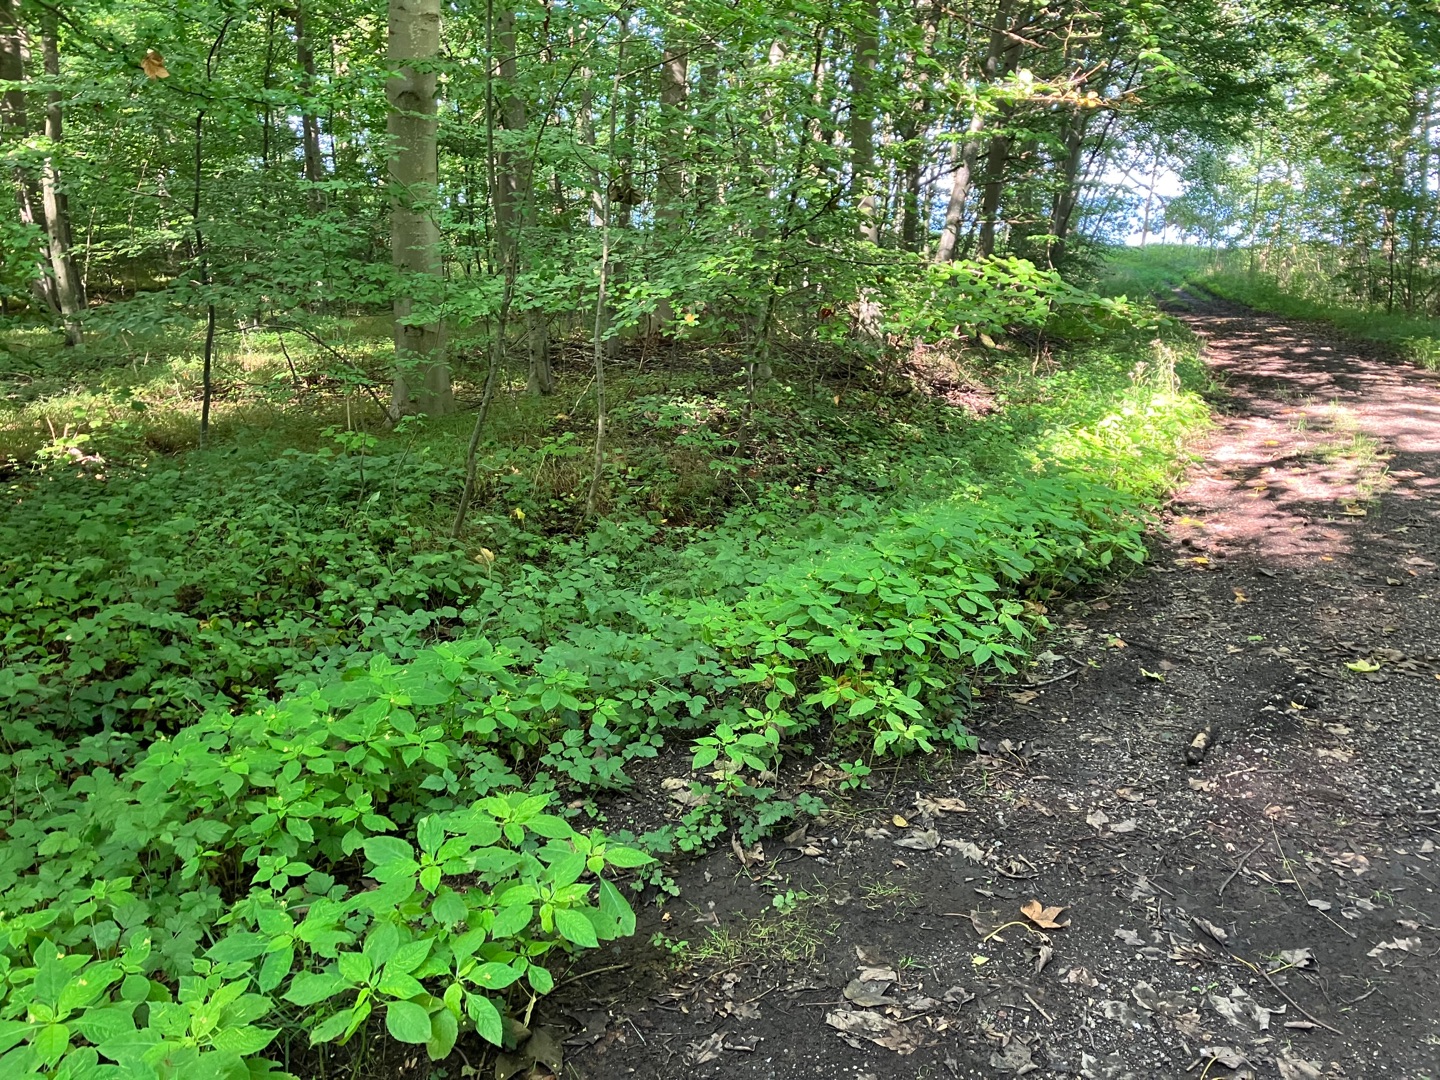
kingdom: Plantae
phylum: Tracheophyta
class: Magnoliopsida
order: Ericales
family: Balsaminaceae
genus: Impatiens
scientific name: Impatiens parviflora
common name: Småblomstret balsamin
